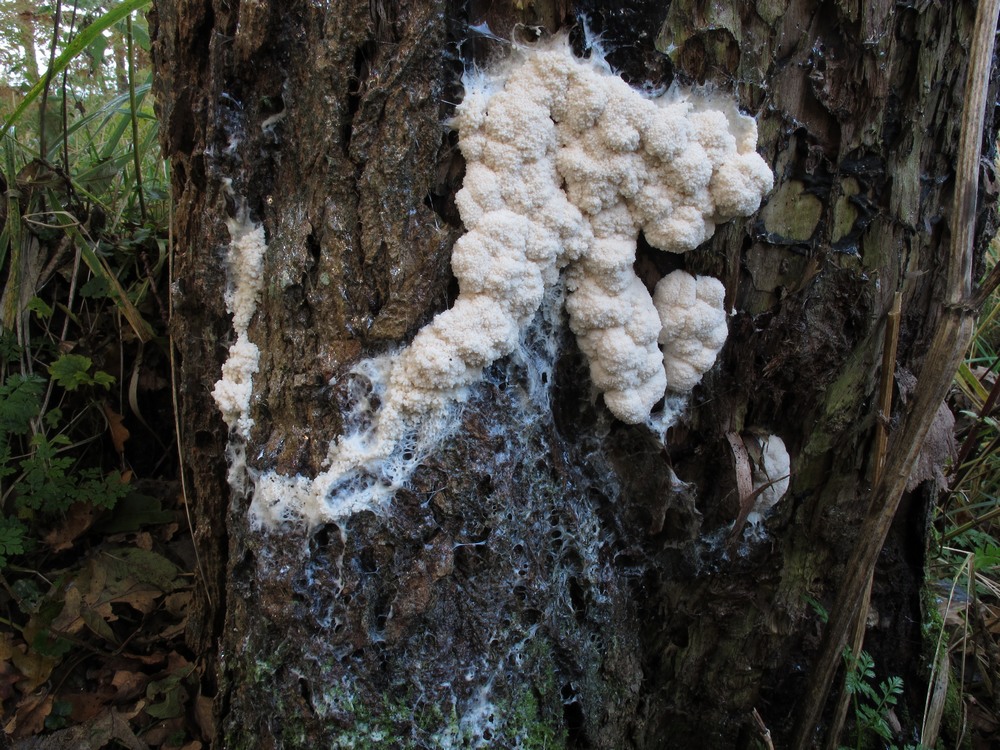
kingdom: Protozoa
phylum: Mycetozoa
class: Myxomycetes
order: Stemonitidales
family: Stemonitidaceae
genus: Brefeldia
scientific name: Brefeldia maxima
